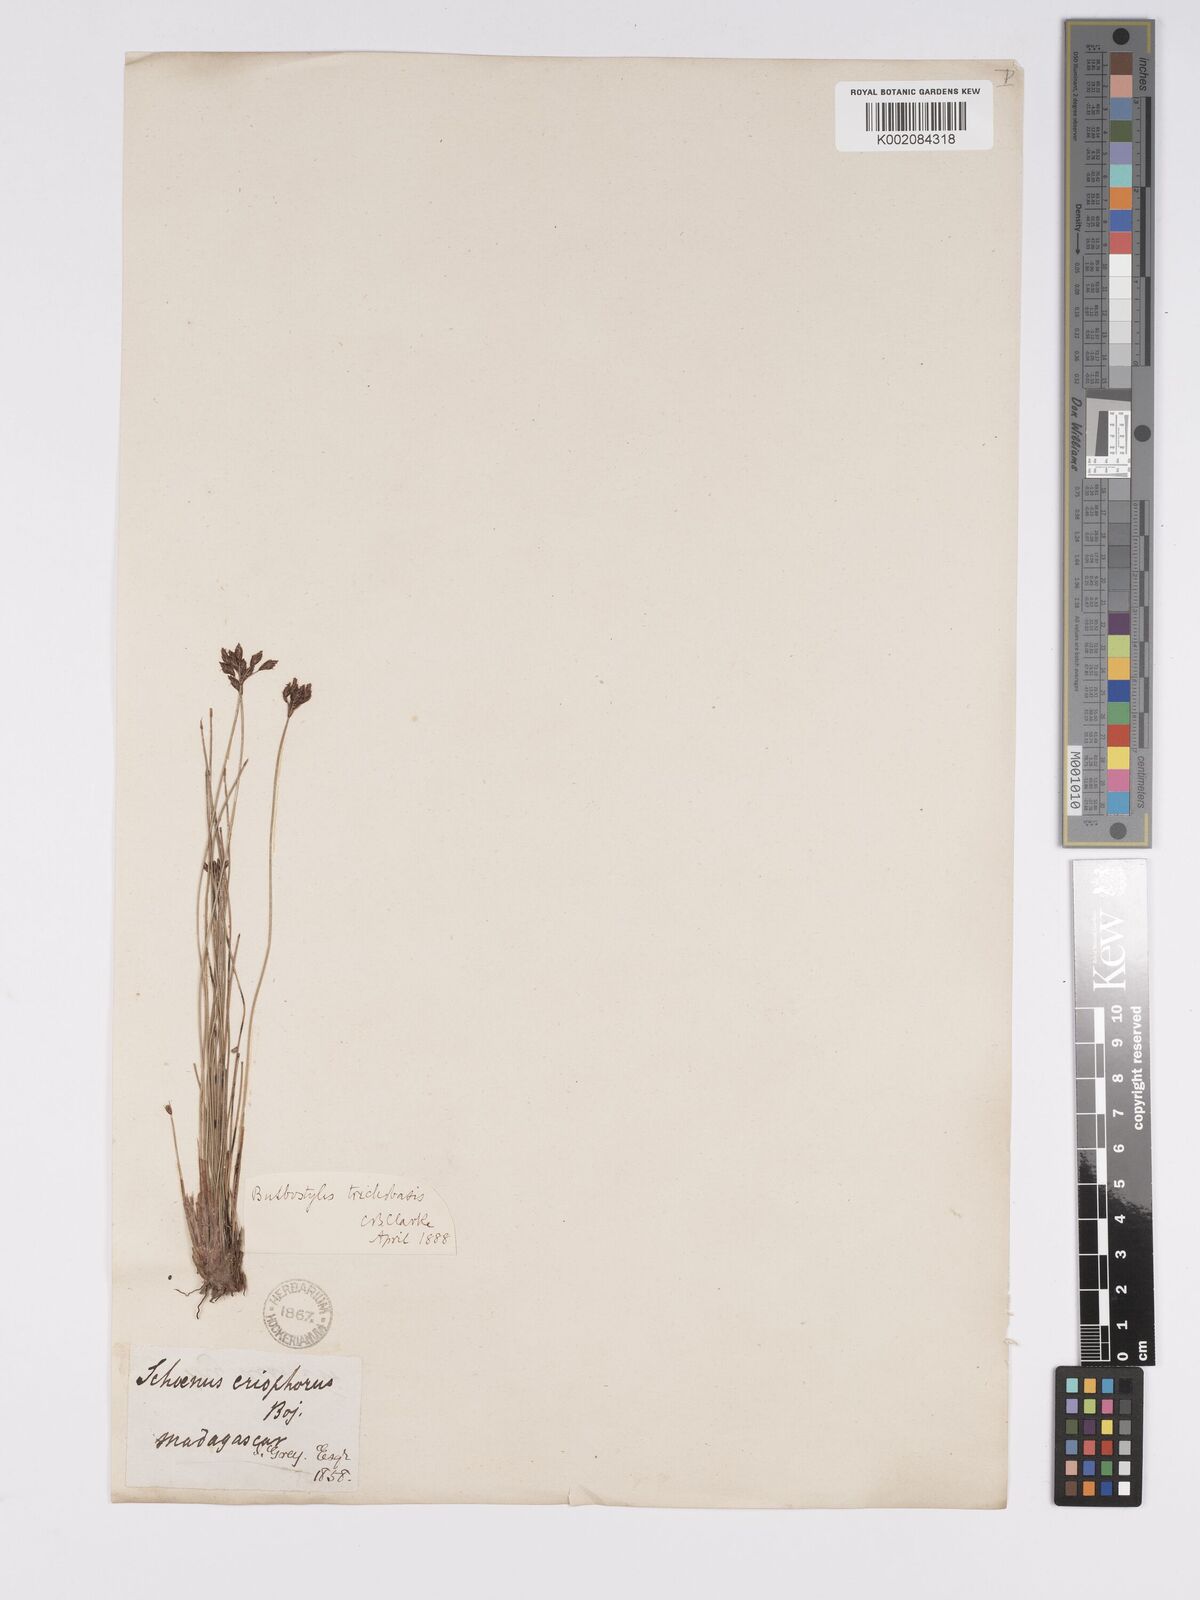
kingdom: Plantae
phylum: Tracheophyta
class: Liliopsida
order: Poales
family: Cyperaceae
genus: Bulbostylis
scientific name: Bulbostylis trichobasis
